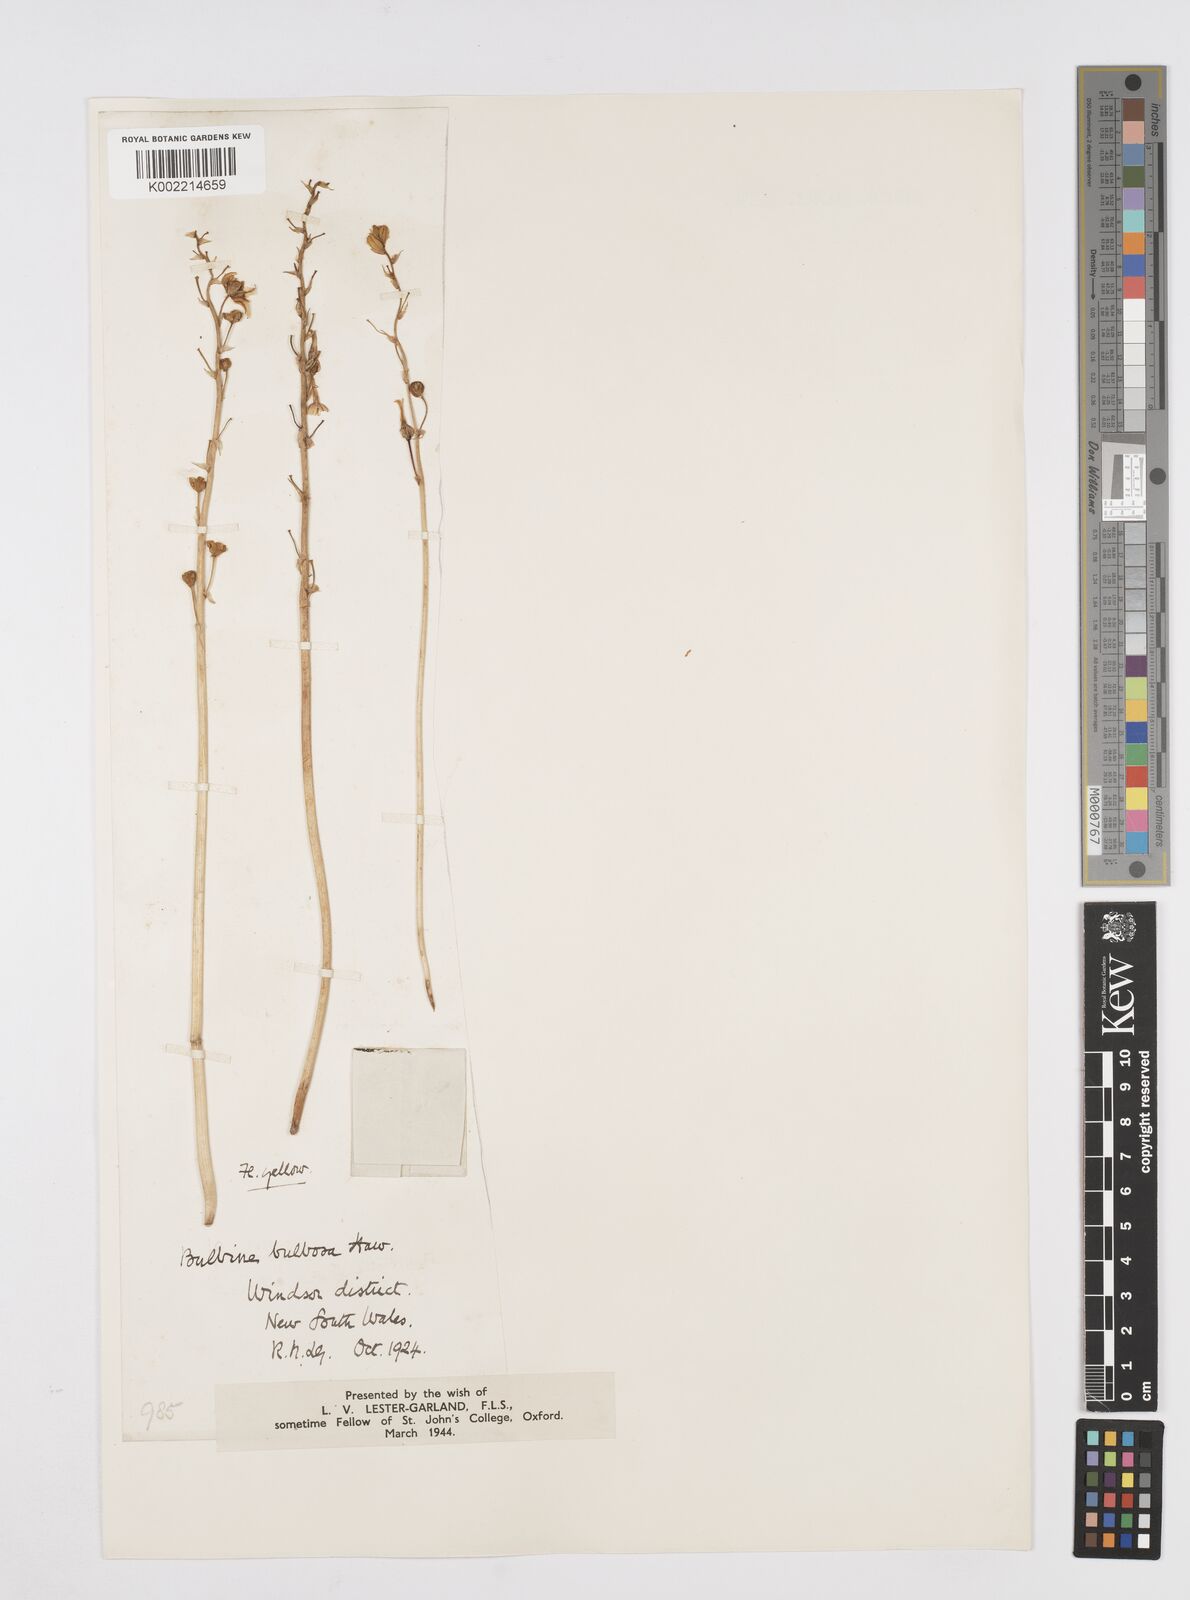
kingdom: Plantae
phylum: Tracheophyta
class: Liliopsida
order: Asparagales
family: Asphodelaceae
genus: Bulbine
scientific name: Bulbine bulbosa
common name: Golden-lily
